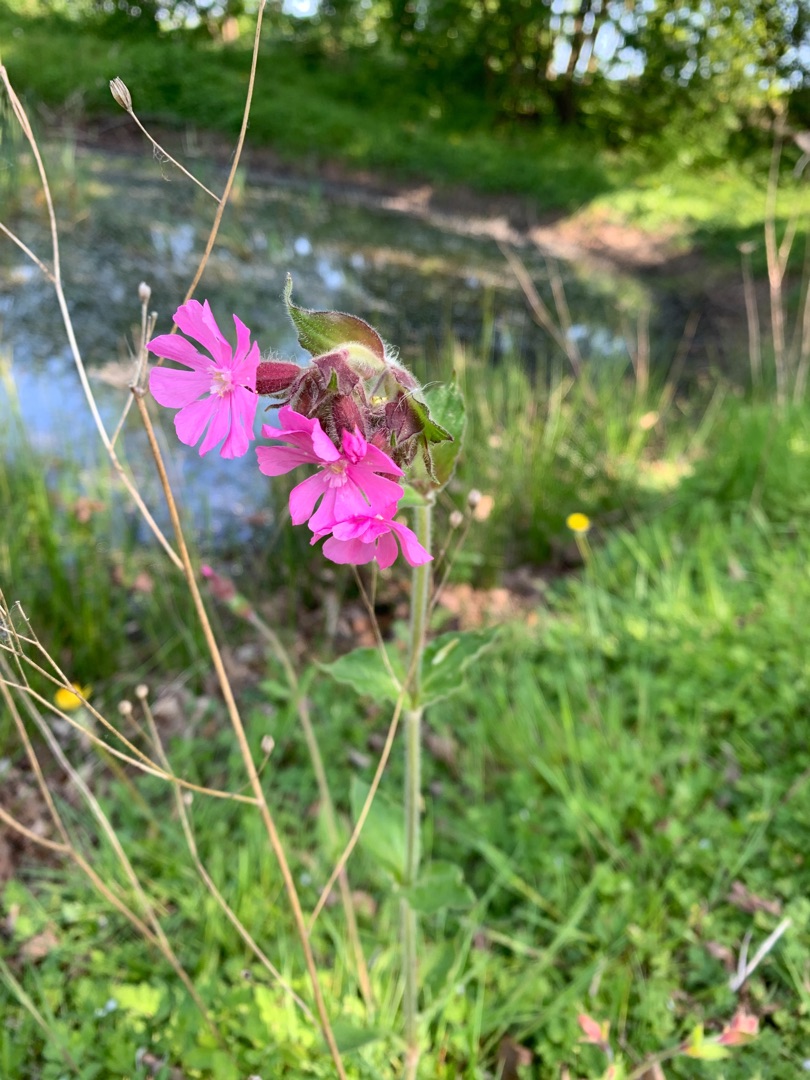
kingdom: Plantae
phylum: Tracheophyta
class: Magnoliopsida
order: Caryophyllales
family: Caryophyllaceae
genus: Silene
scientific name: Silene dioica
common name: Dagpragtstjerne
